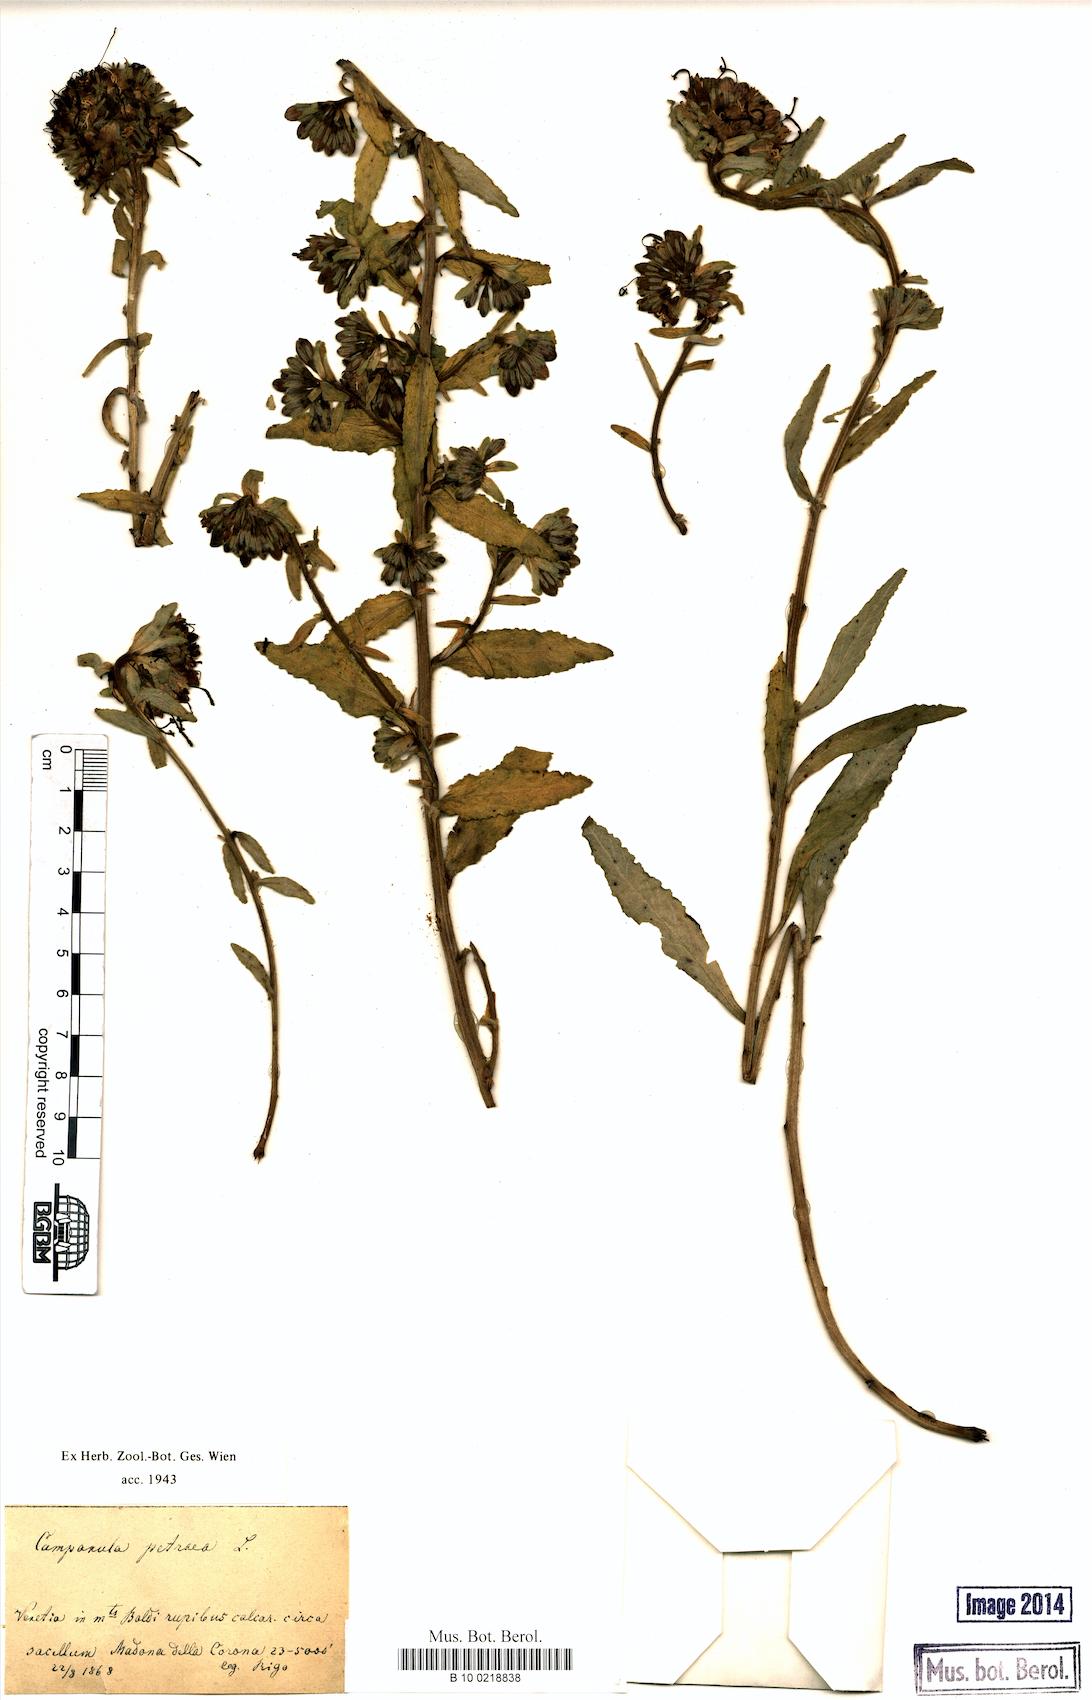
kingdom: Plantae
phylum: Tracheophyta
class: Magnoliopsida
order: Asterales
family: Campanulaceae
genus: Campanula
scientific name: Campanula petraea
